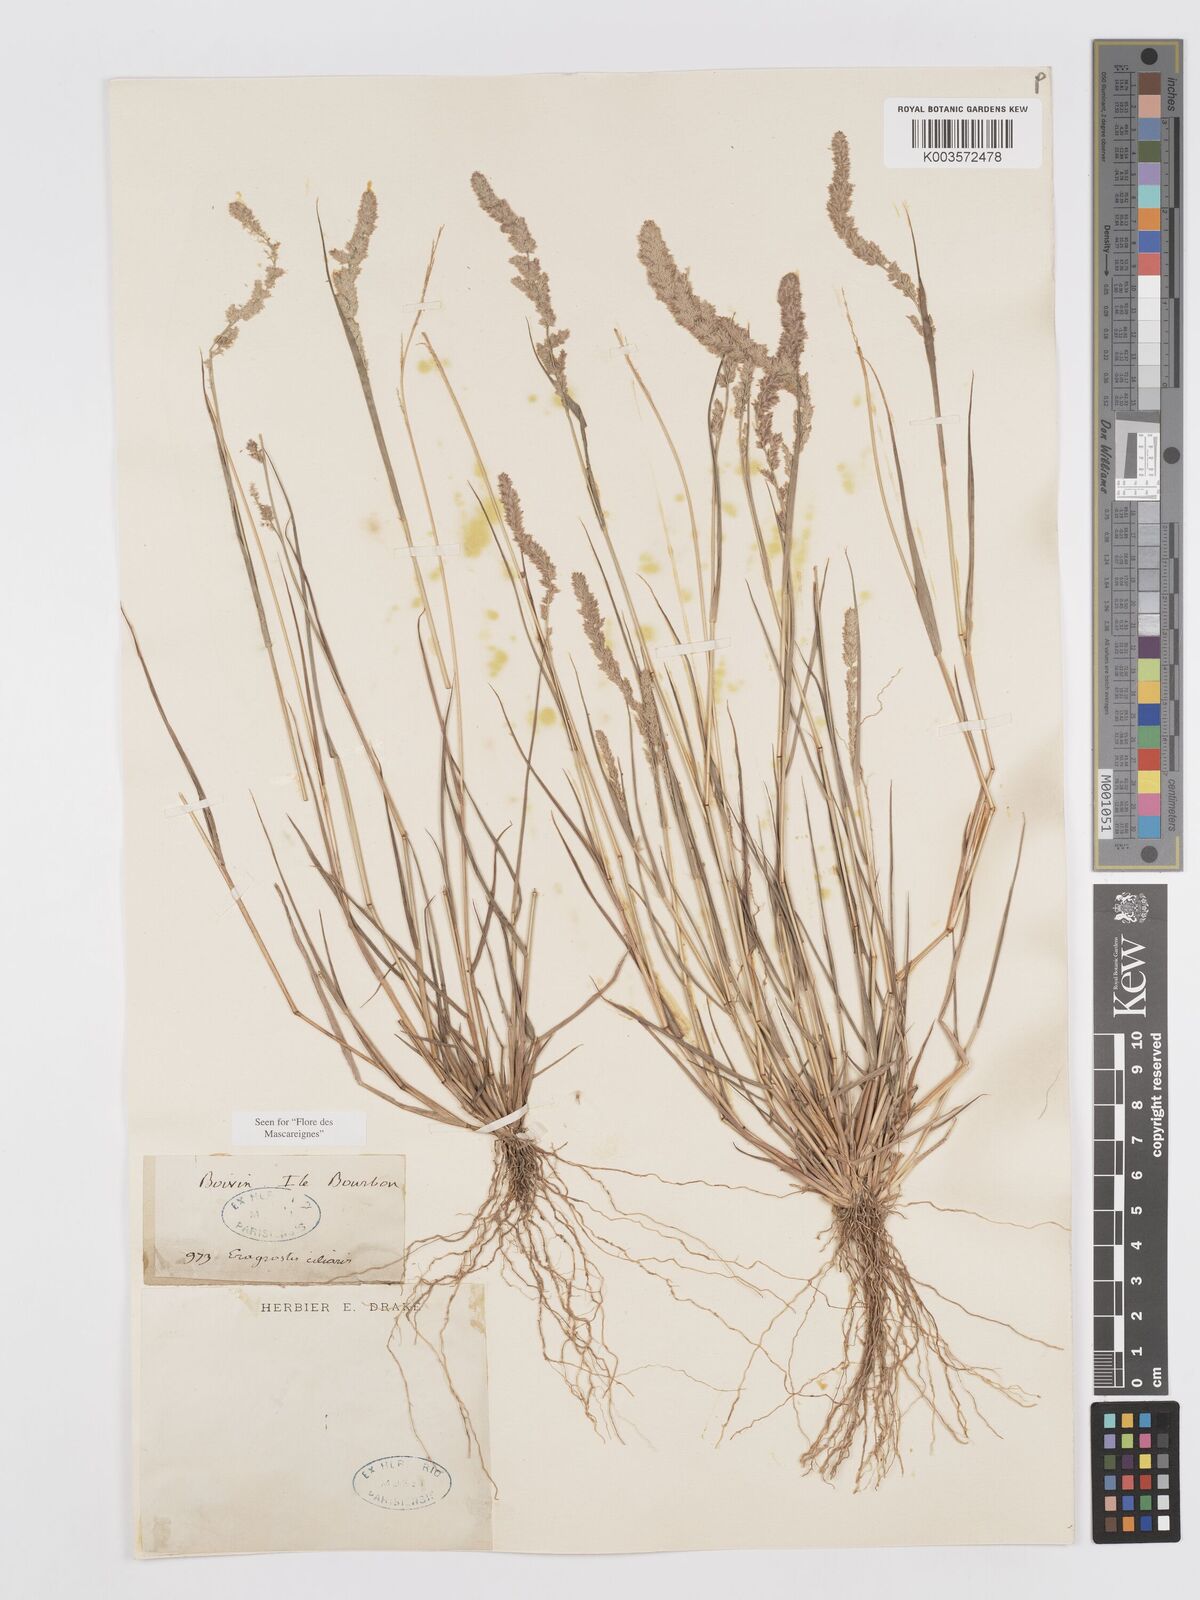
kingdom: Plantae
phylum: Tracheophyta
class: Liliopsida
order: Poales
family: Poaceae
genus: Eragrostis
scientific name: Eragrostis ciliaris
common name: Gophertail lovegrass
